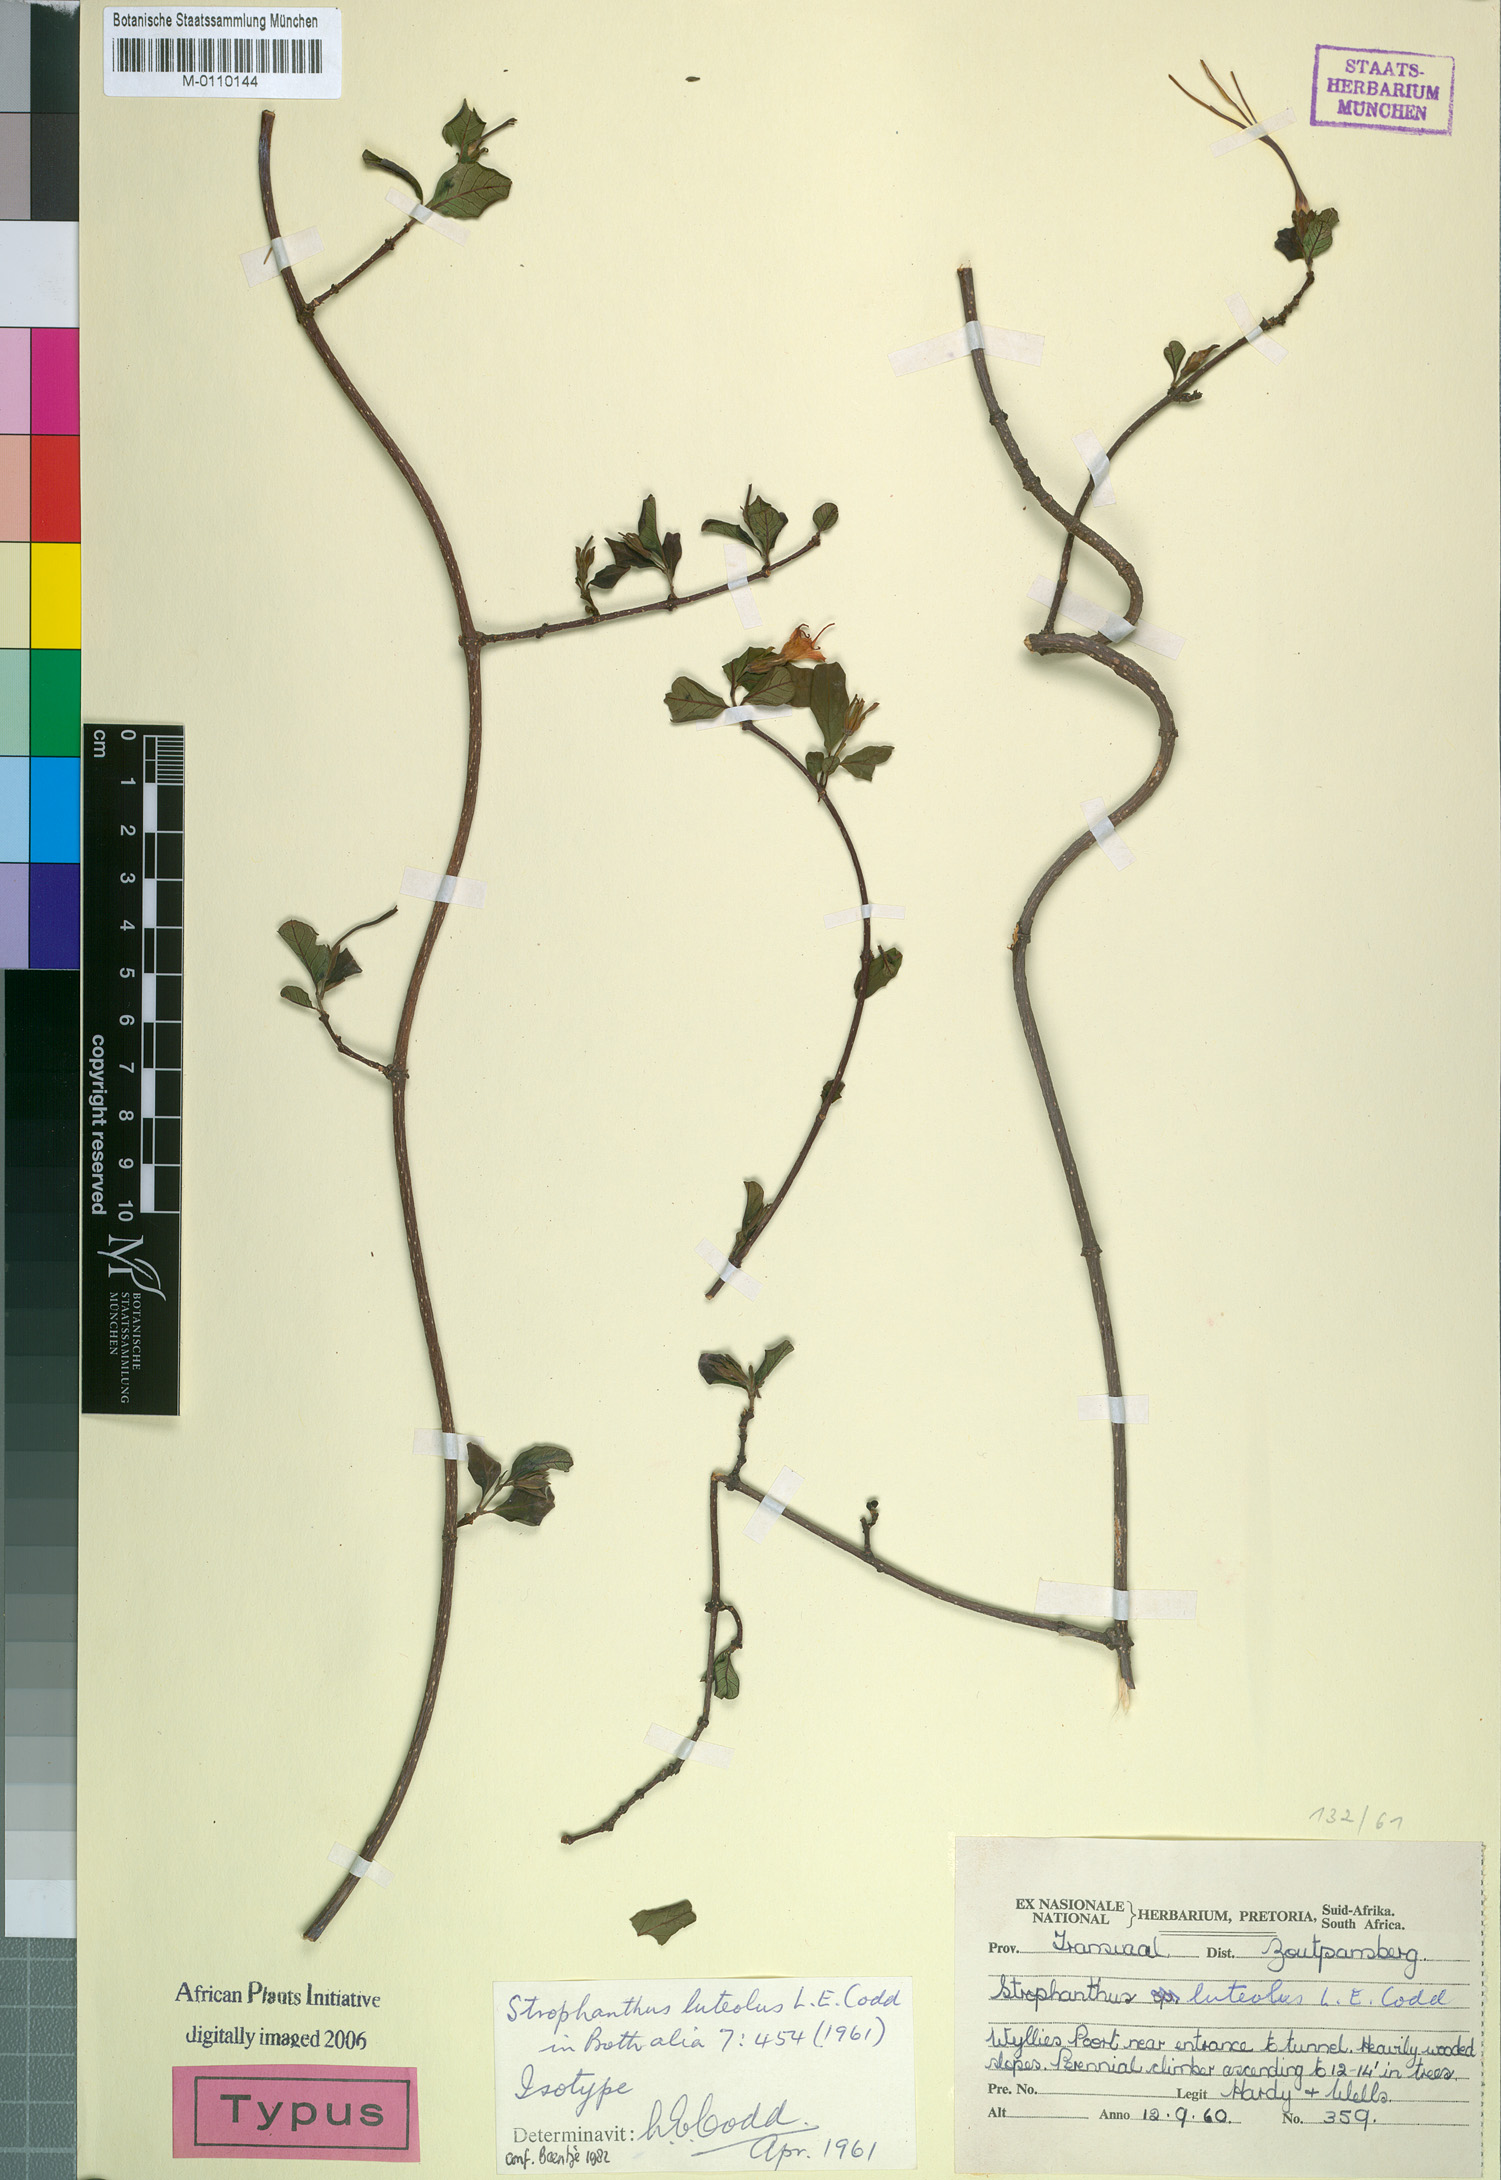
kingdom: Plantae
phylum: Tracheophyta
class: Magnoliopsida
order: Gentianales
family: Apocynaceae
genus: Strophanthus
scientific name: Strophanthus luteolus
